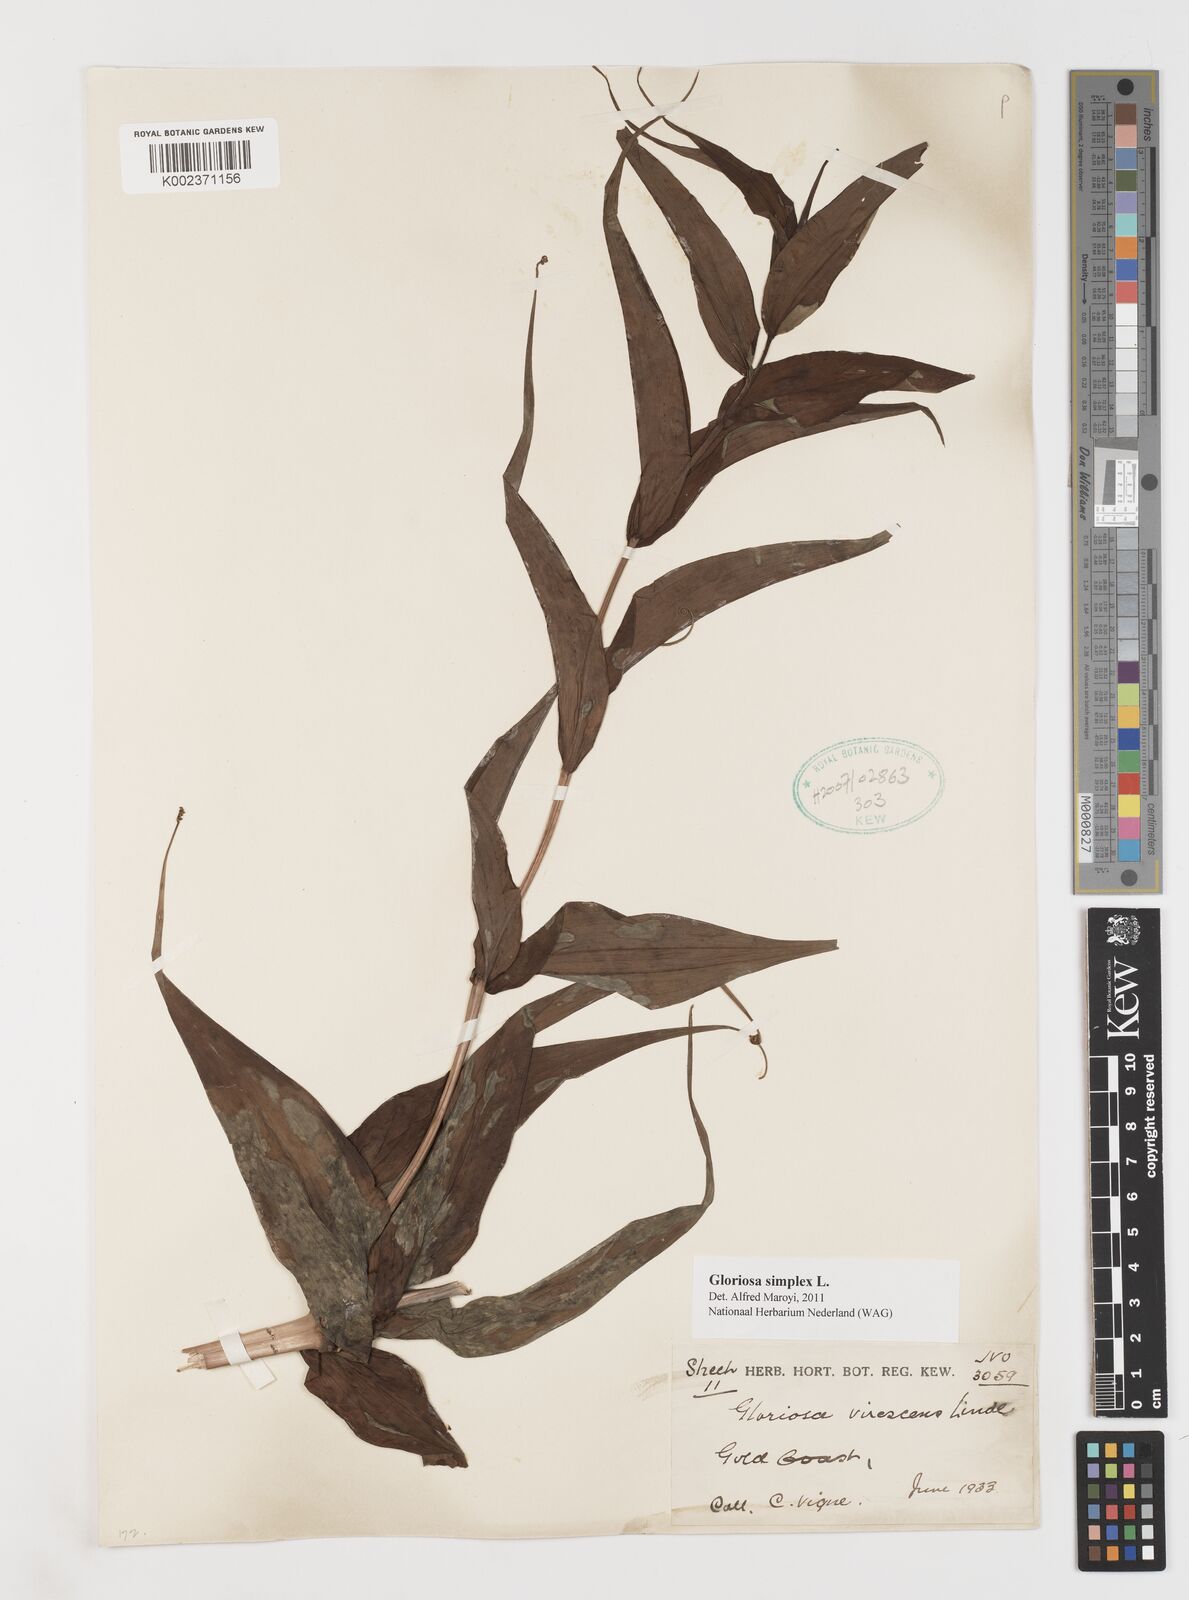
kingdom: Plantae
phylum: Tracheophyta
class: Liliopsida
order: Liliales
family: Colchicaceae
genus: Gloriosa
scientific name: Gloriosa simplex
